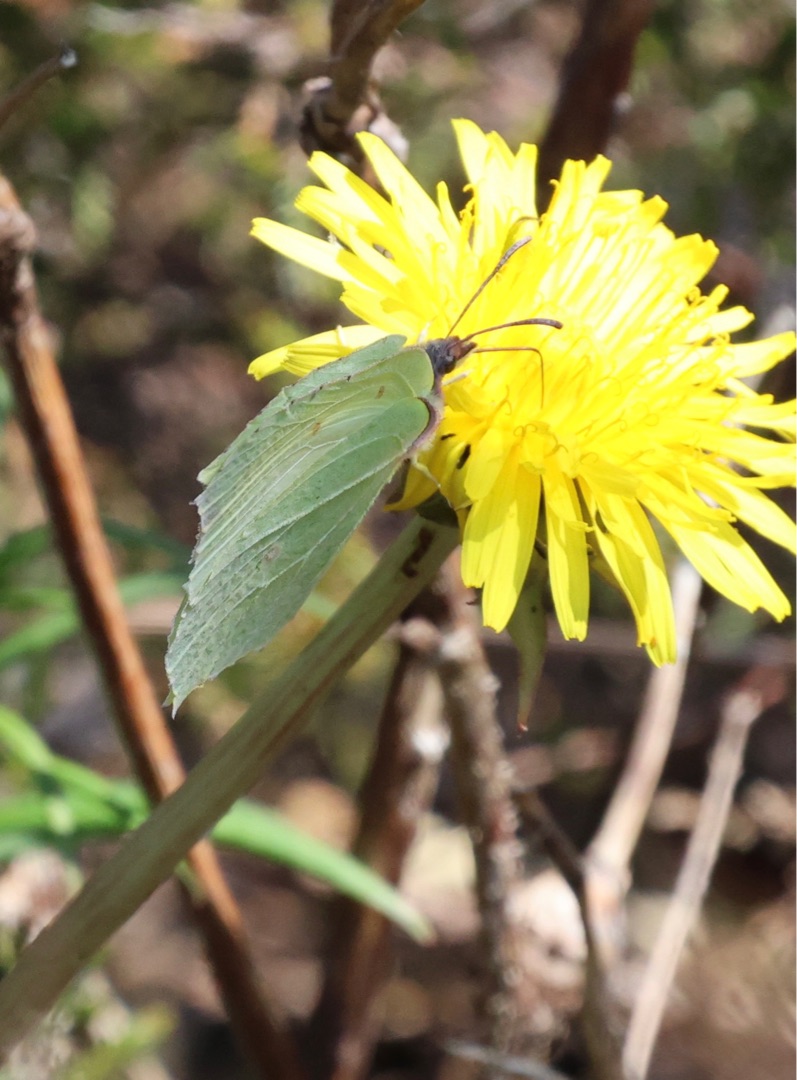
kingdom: Animalia
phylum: Arthropoda
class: Insecta
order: Lepidoptera
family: Pieridae
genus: Gonepteryx
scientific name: Gonepteryx rhamni
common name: Citronsommerfugl
